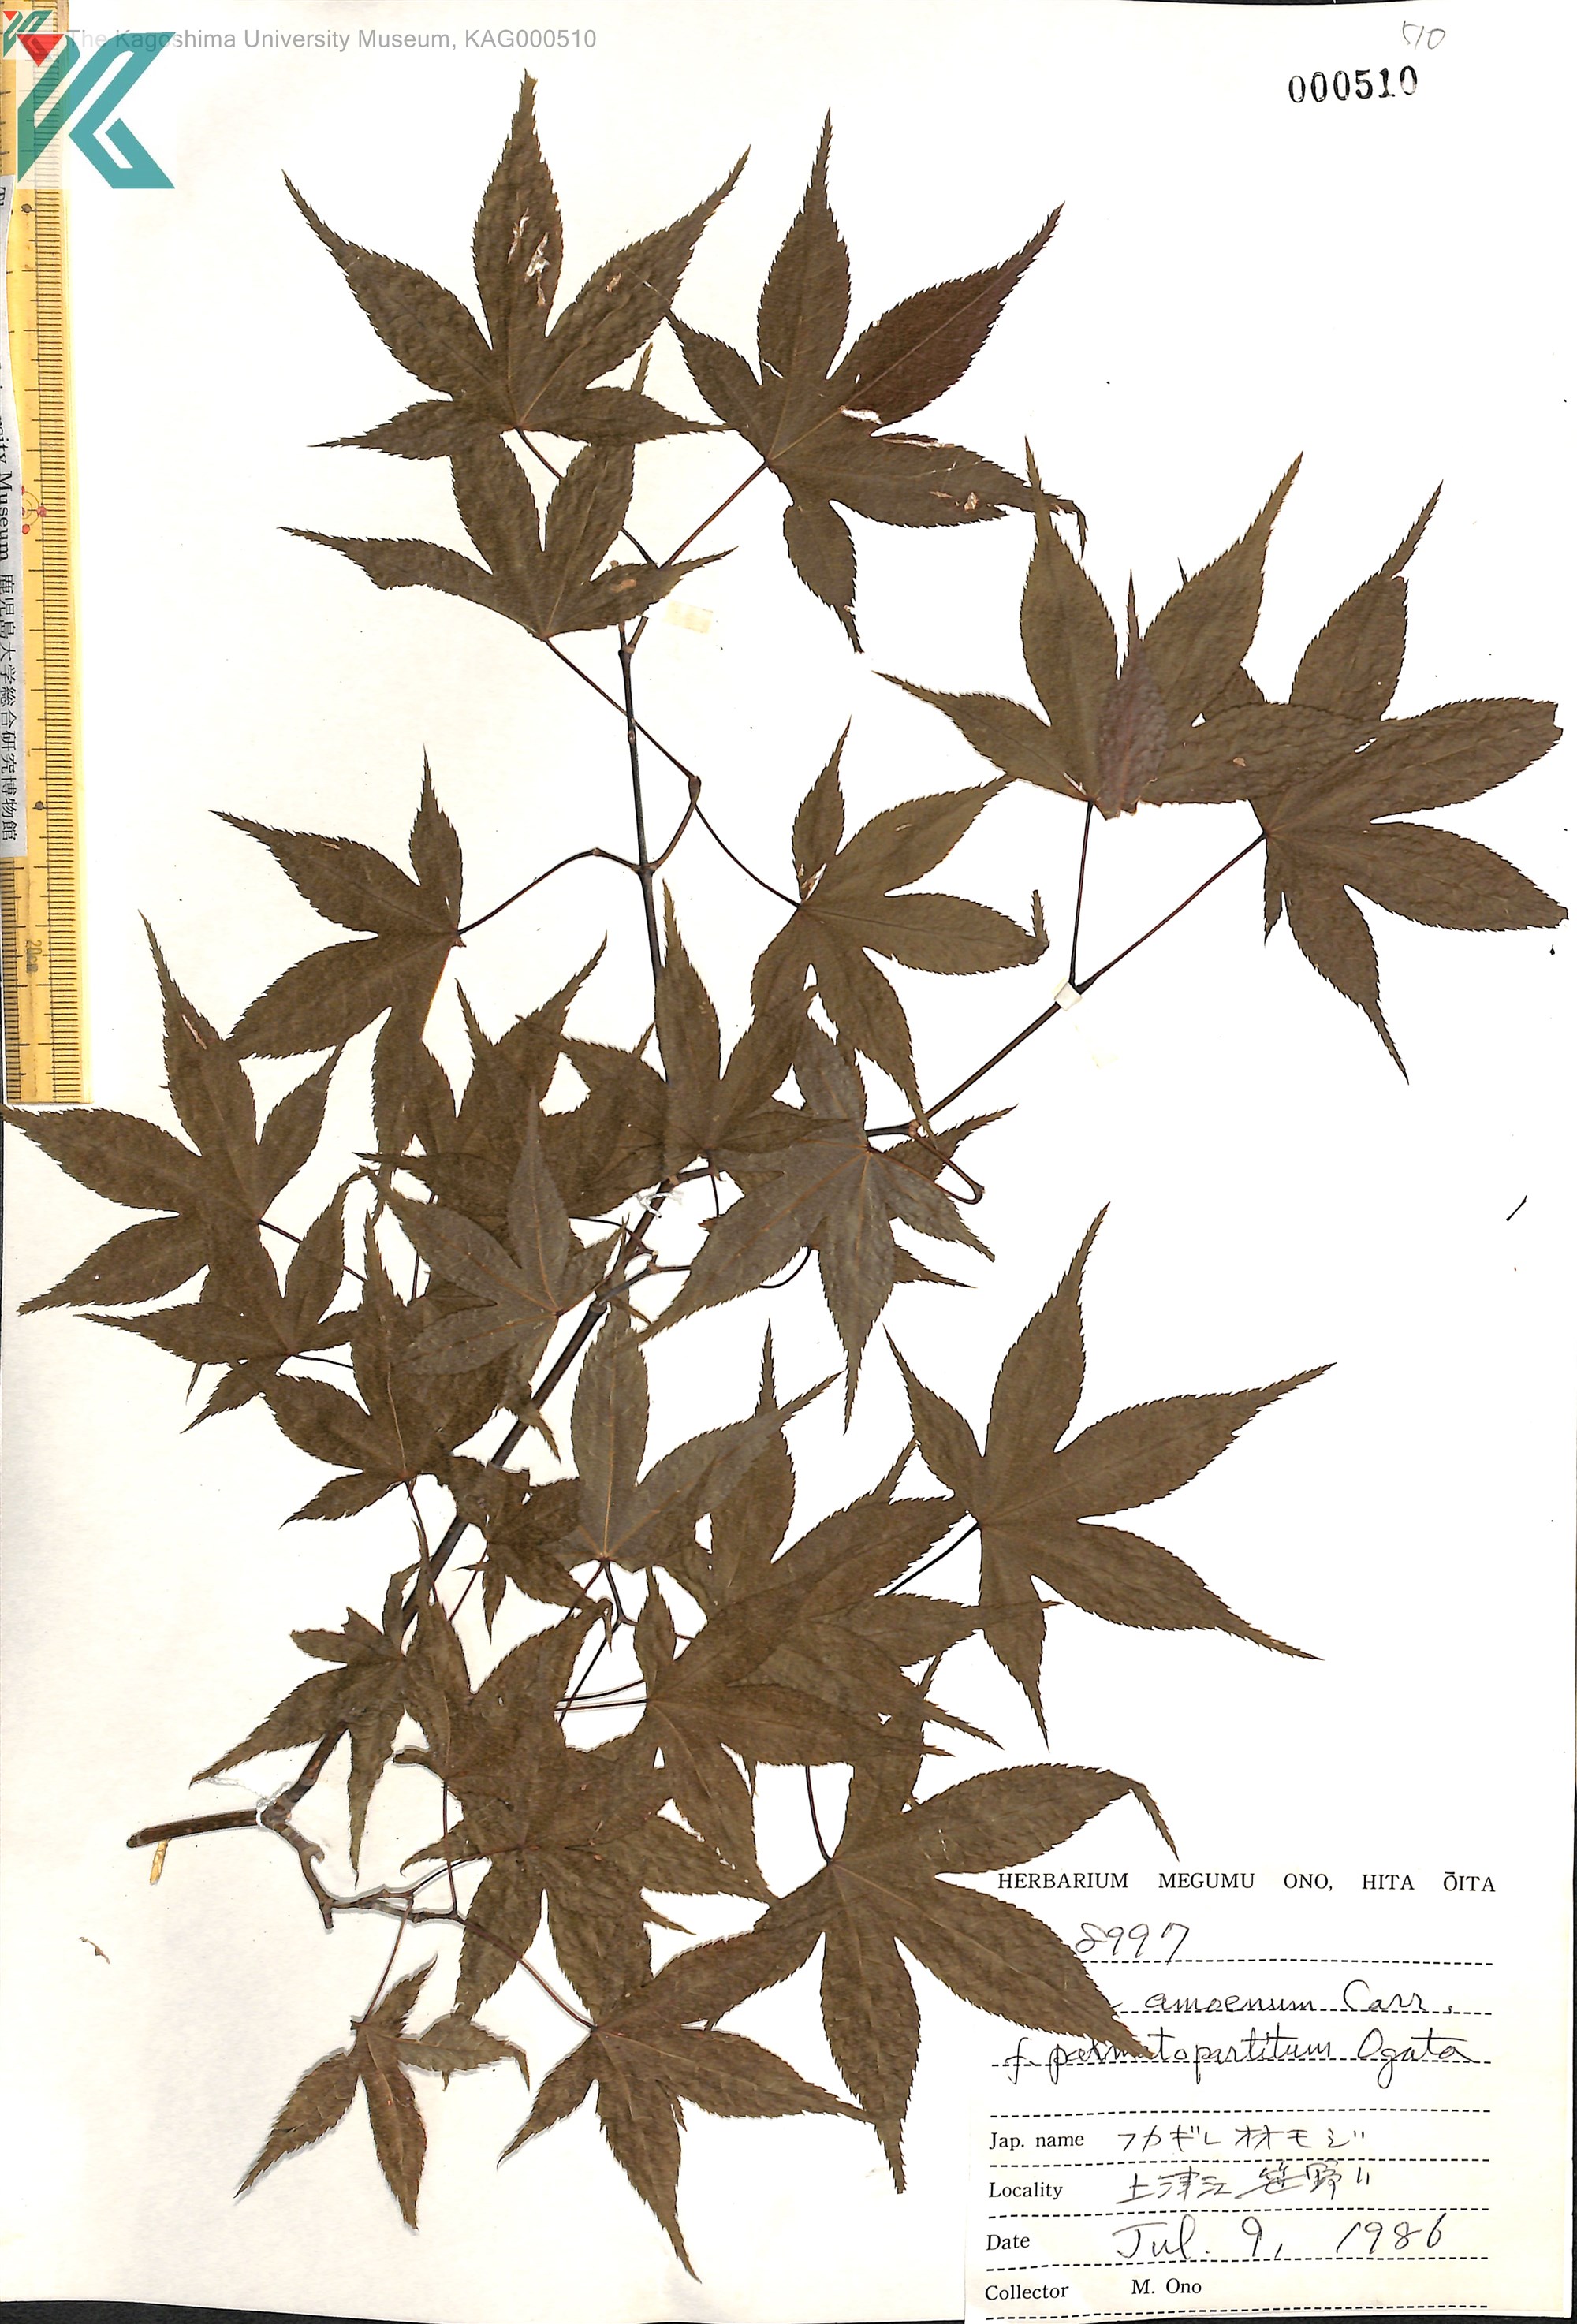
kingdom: Plantae
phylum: Tracheophyta
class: Magnoliopsida
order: Sapindales
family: Sapindaceae
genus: Acer
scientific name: Acer palmatum
